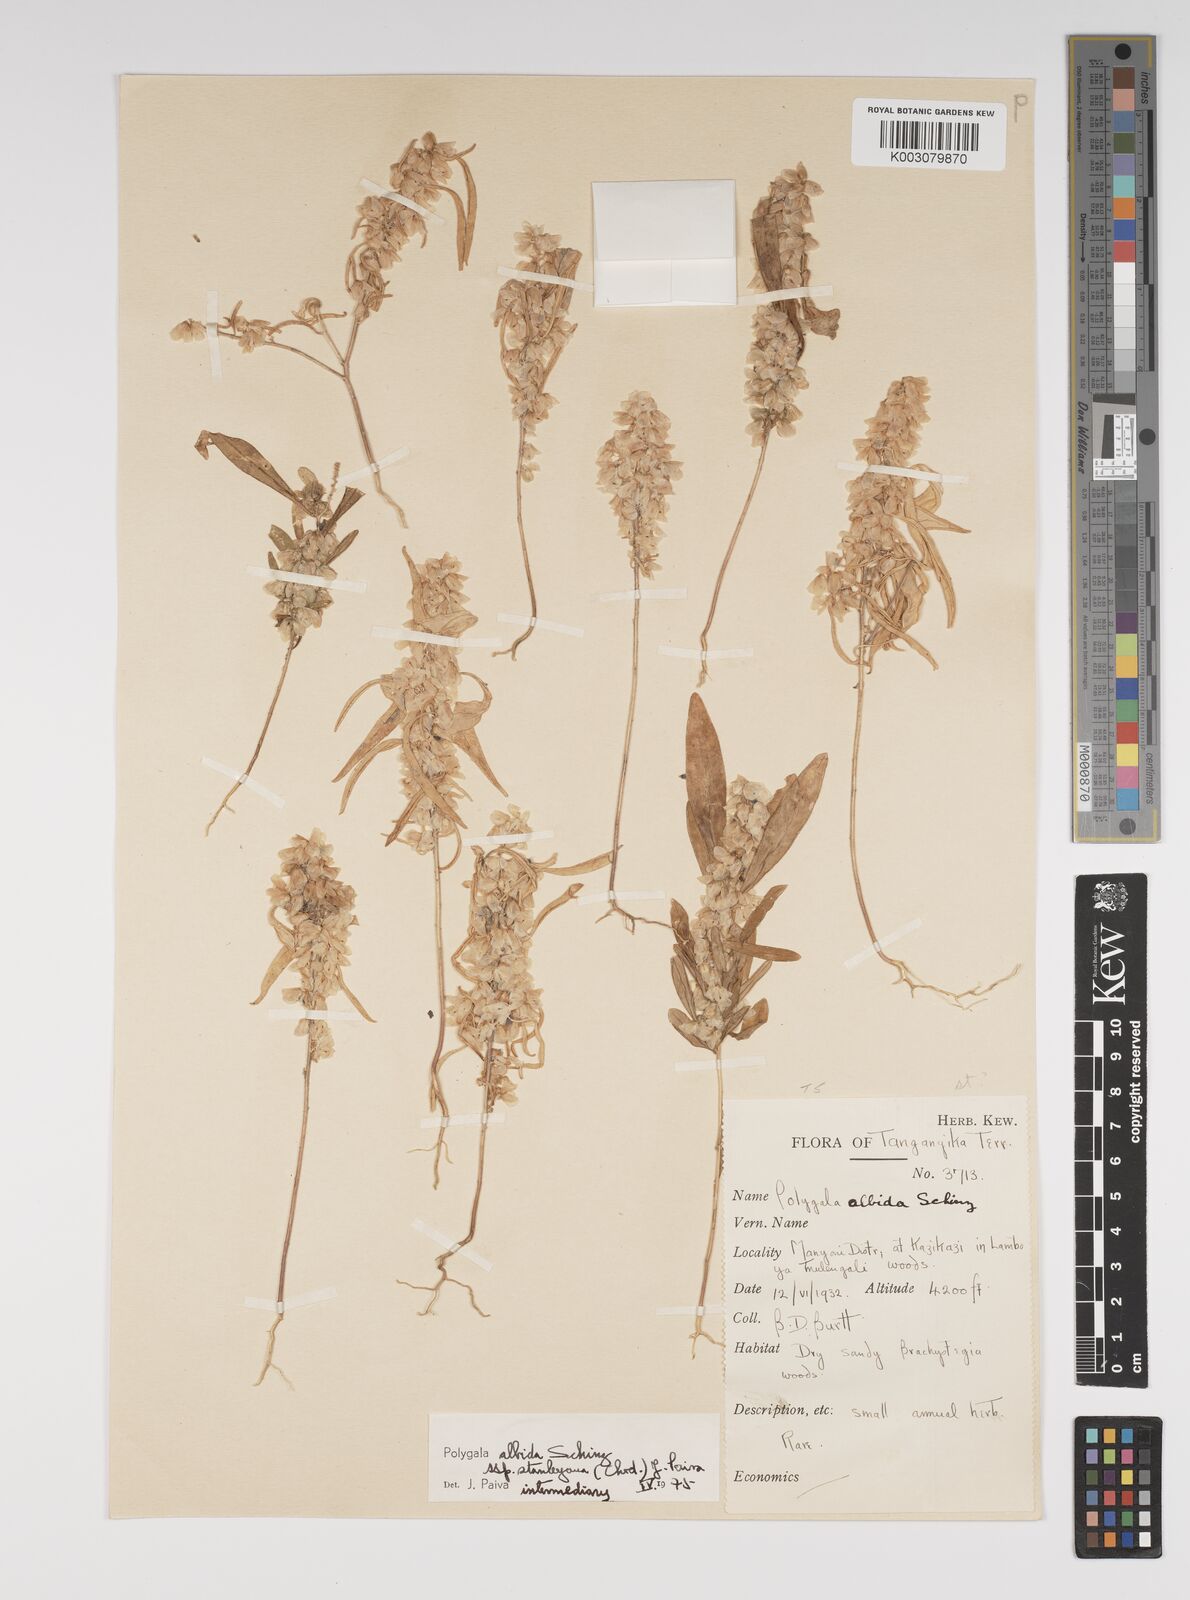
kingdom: Plantae
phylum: Tracheophyta
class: Magnoliopsida
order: Fabales
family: Polygalaceae
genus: Polygala
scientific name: Polygala albida
